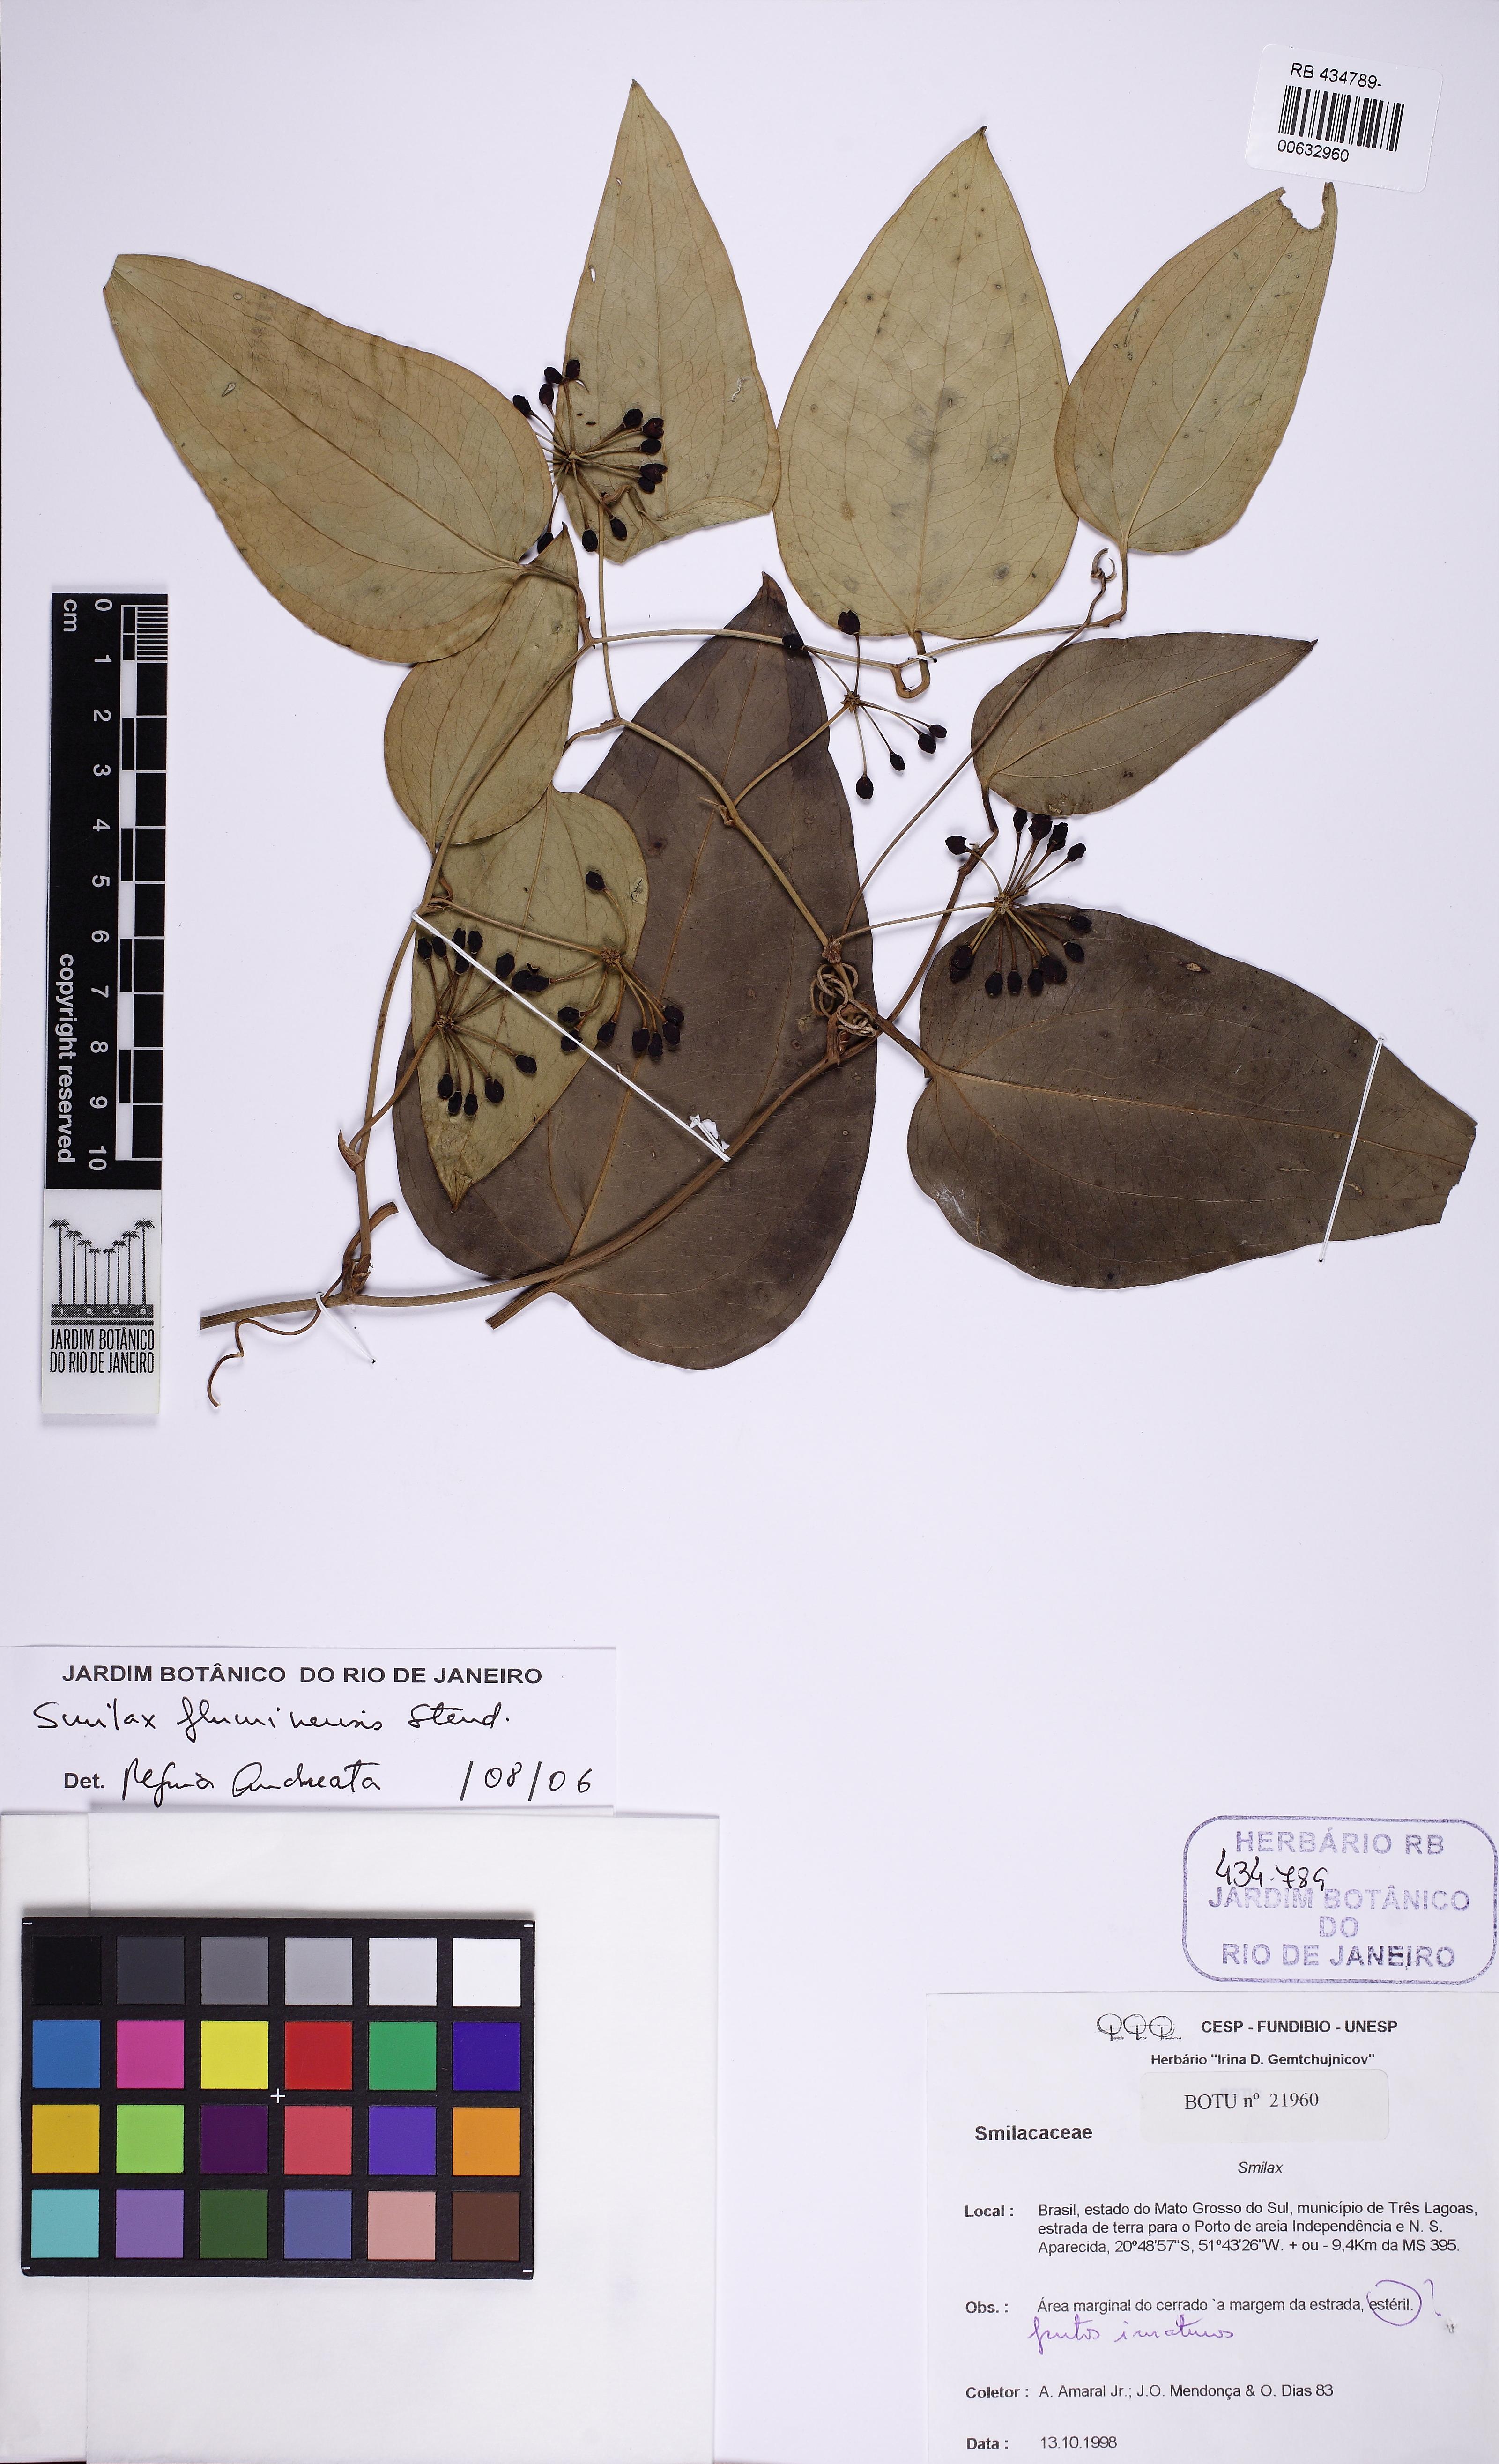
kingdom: Plantae
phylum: Tracheophyta
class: Liliopsida
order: Liliales
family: Smilacaceae
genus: Smilax
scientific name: Smilax fluminensis
